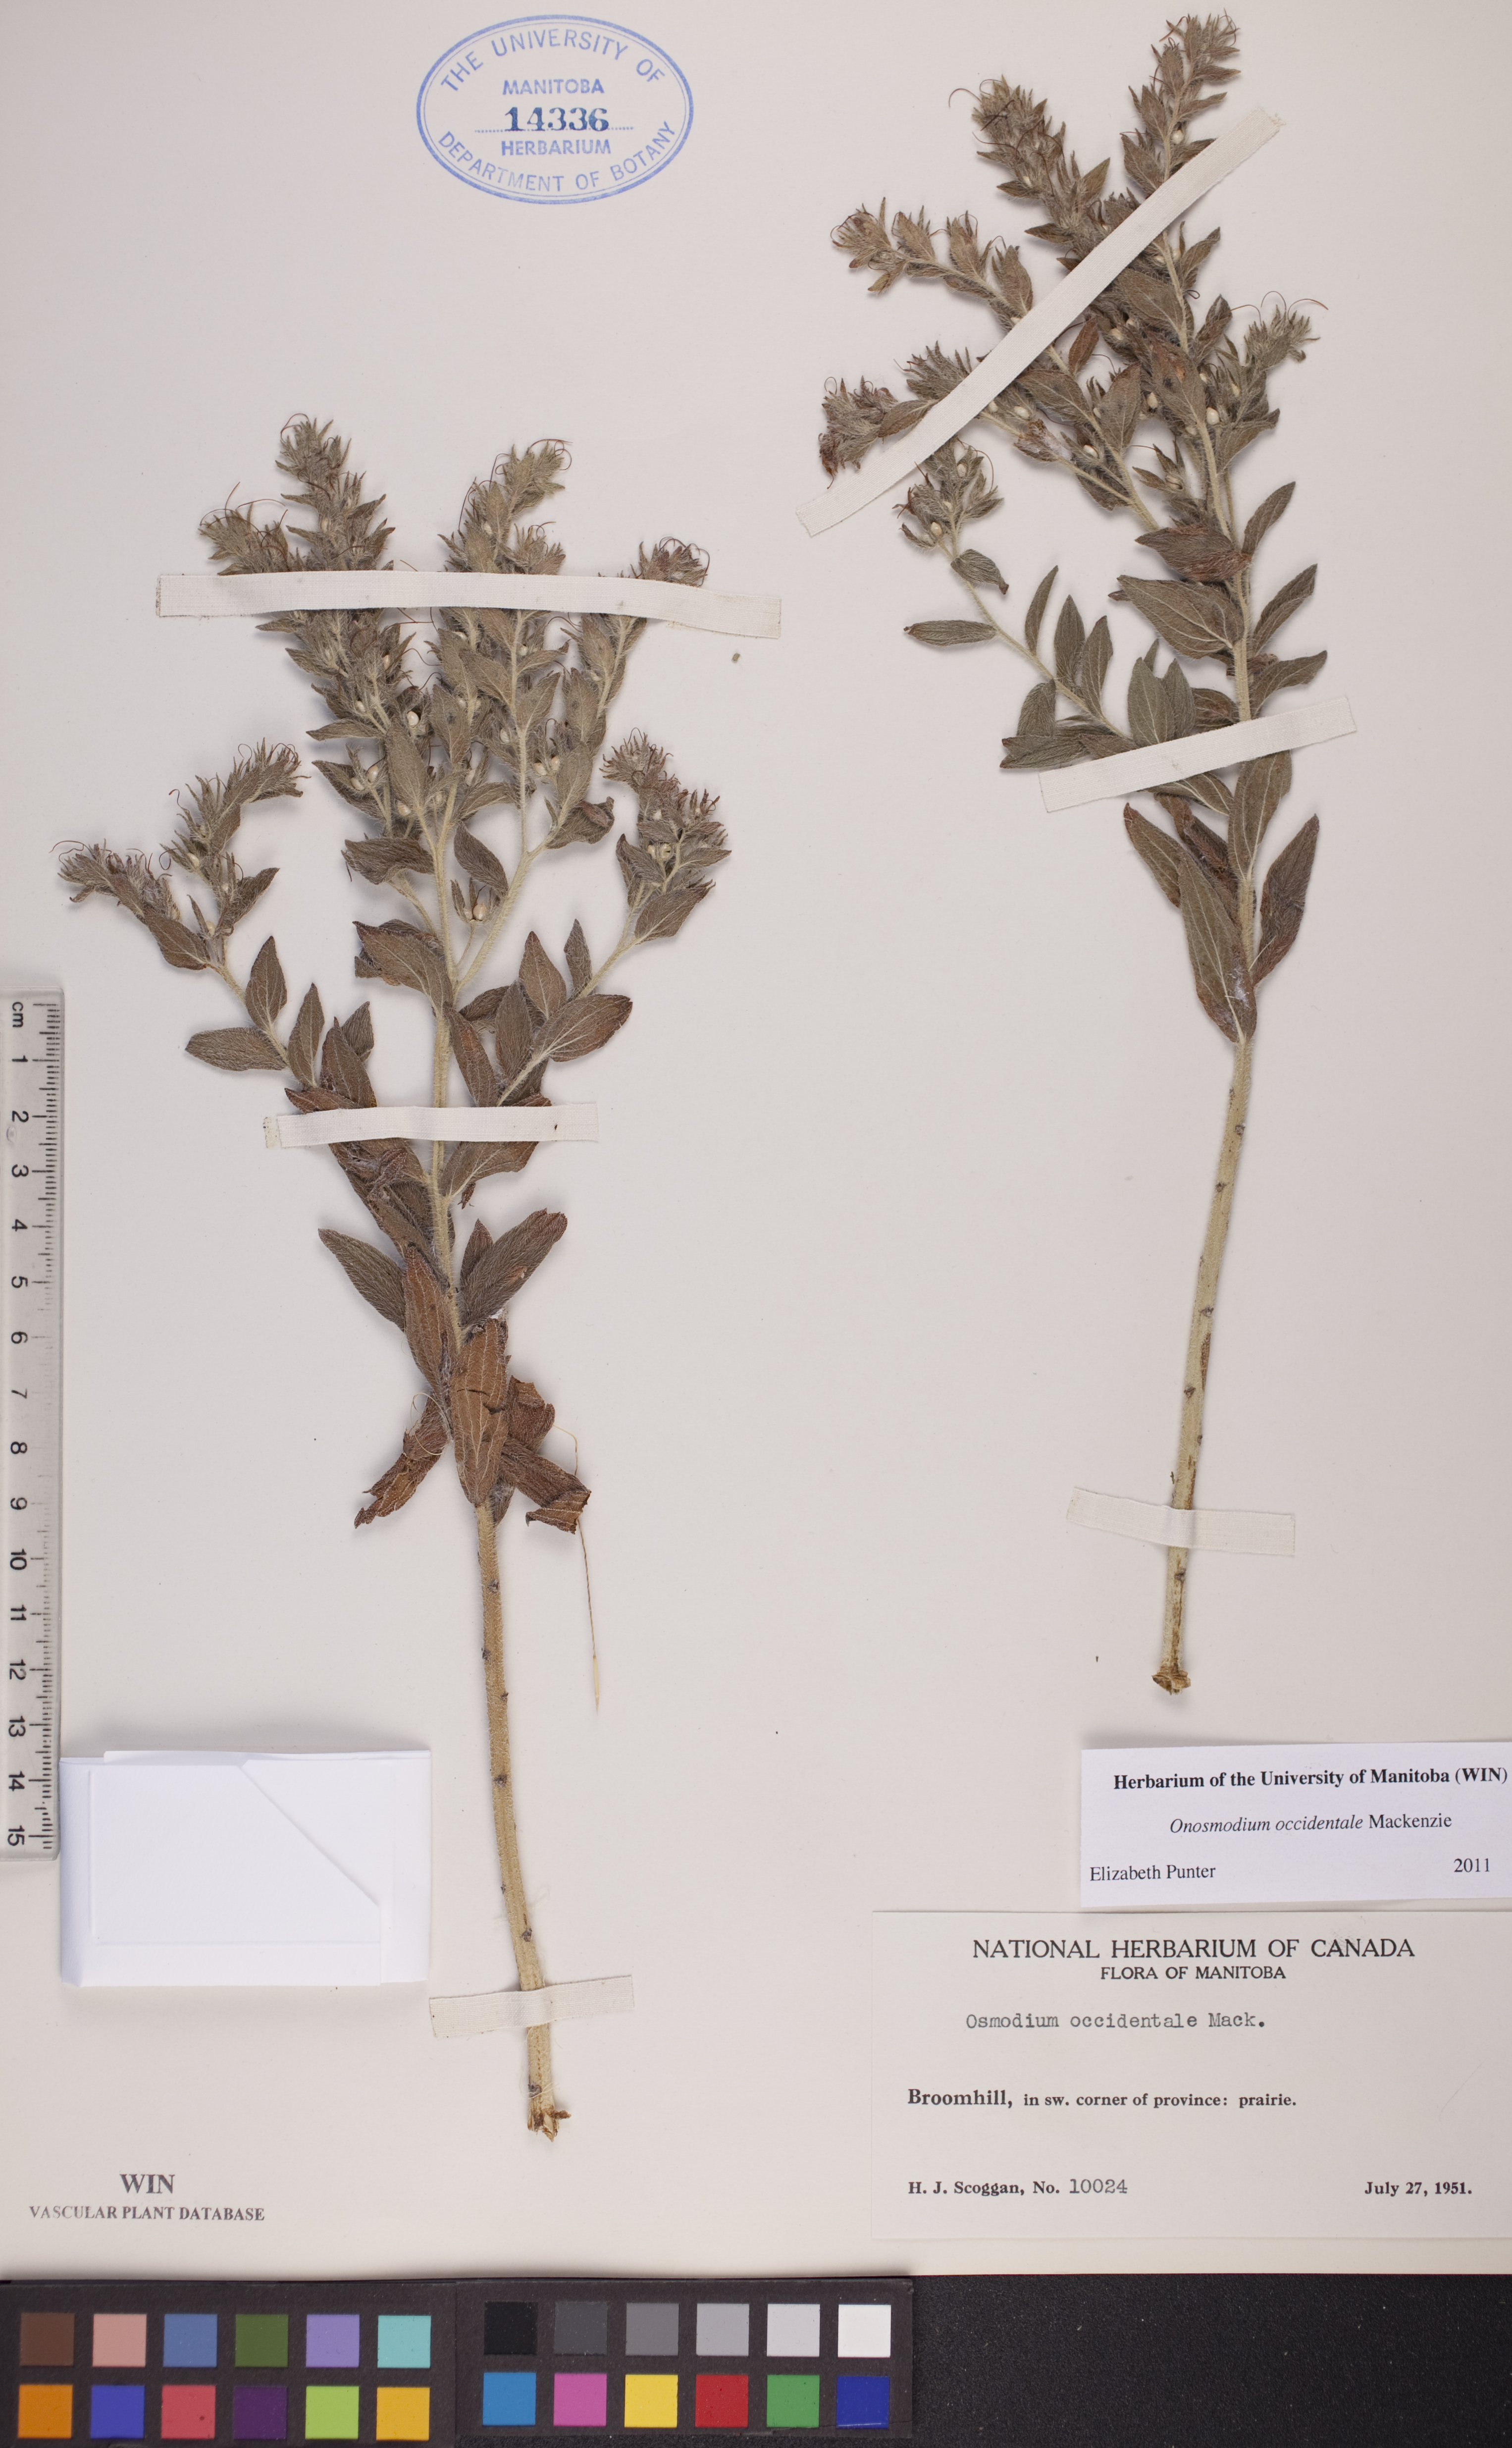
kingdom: Plantae
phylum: Tracheophyta
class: Magnoliopsida
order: Boraginales
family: Boraginaceae
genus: Lithospermum
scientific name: Lithospermum occidentale
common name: Western false gromwell
